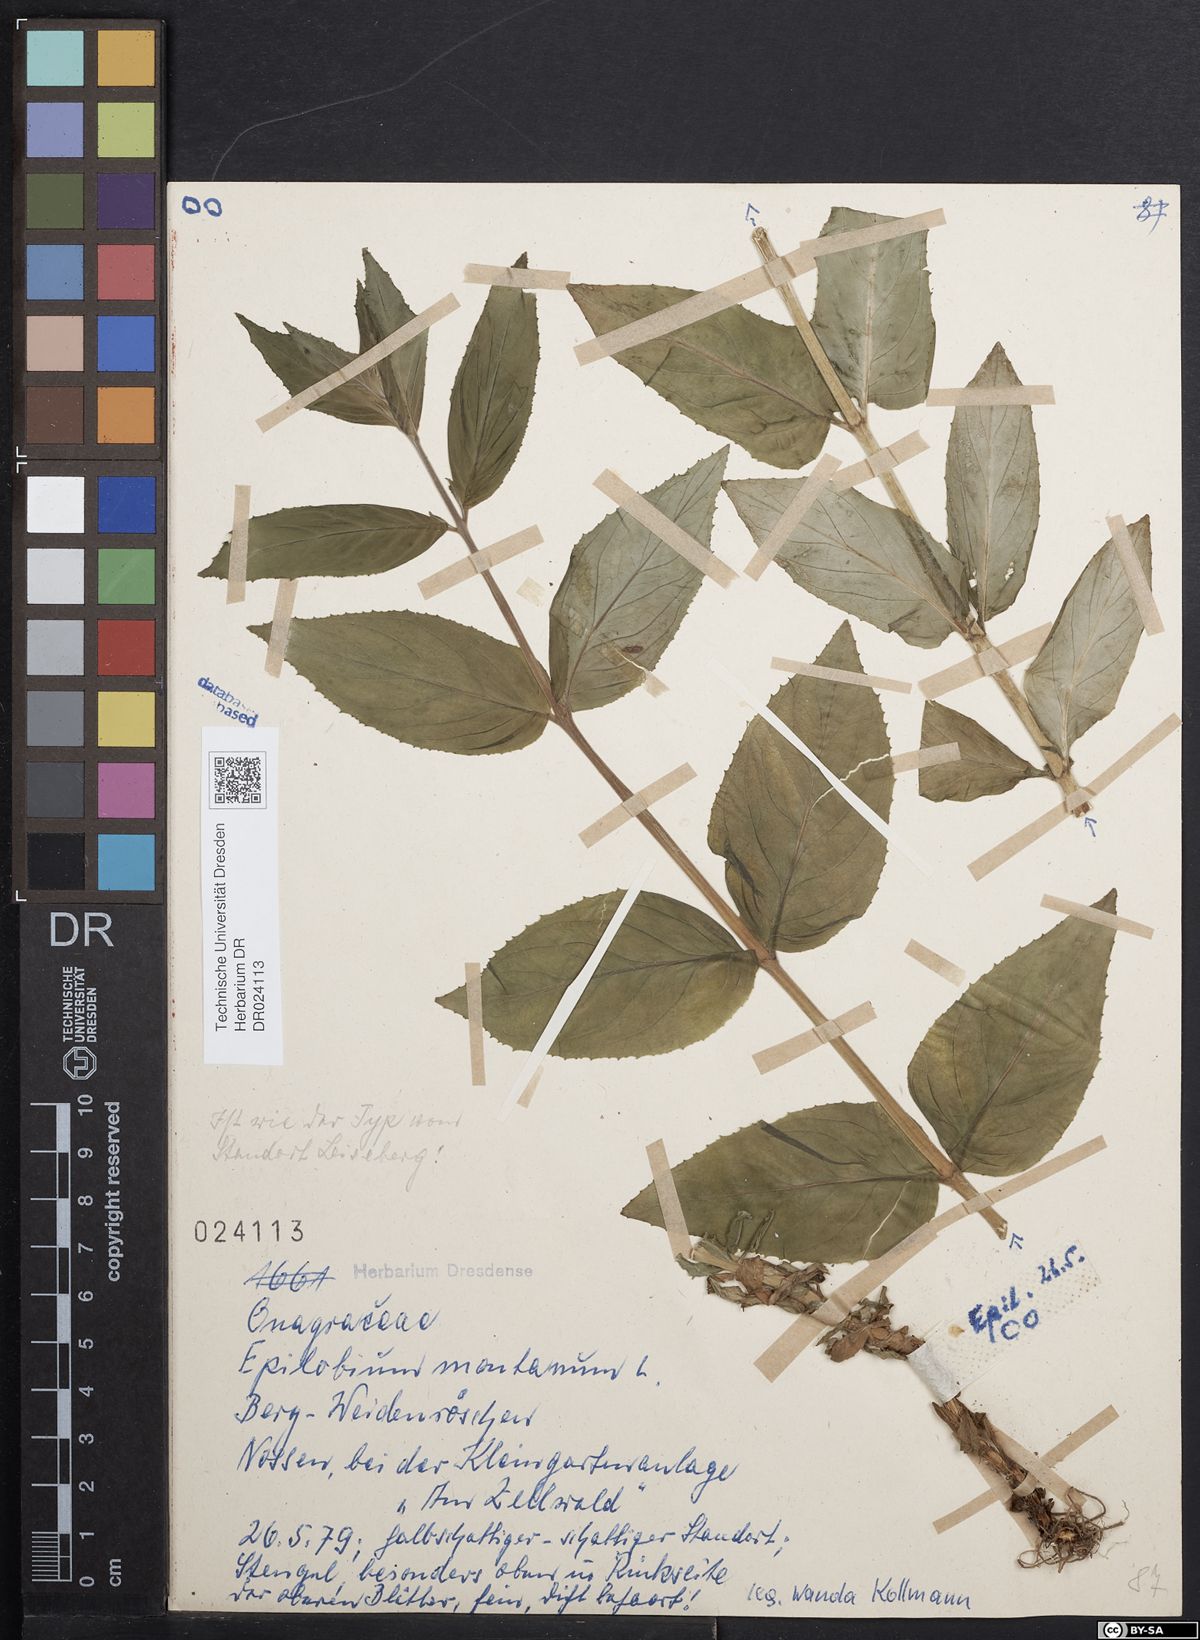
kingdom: Plantae
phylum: Tracheophyta
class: Magnoliopsida
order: Myrtales
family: Onagraceae
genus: Epilobium
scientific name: Epilobium montanum
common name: Broad-leaved willowherb
